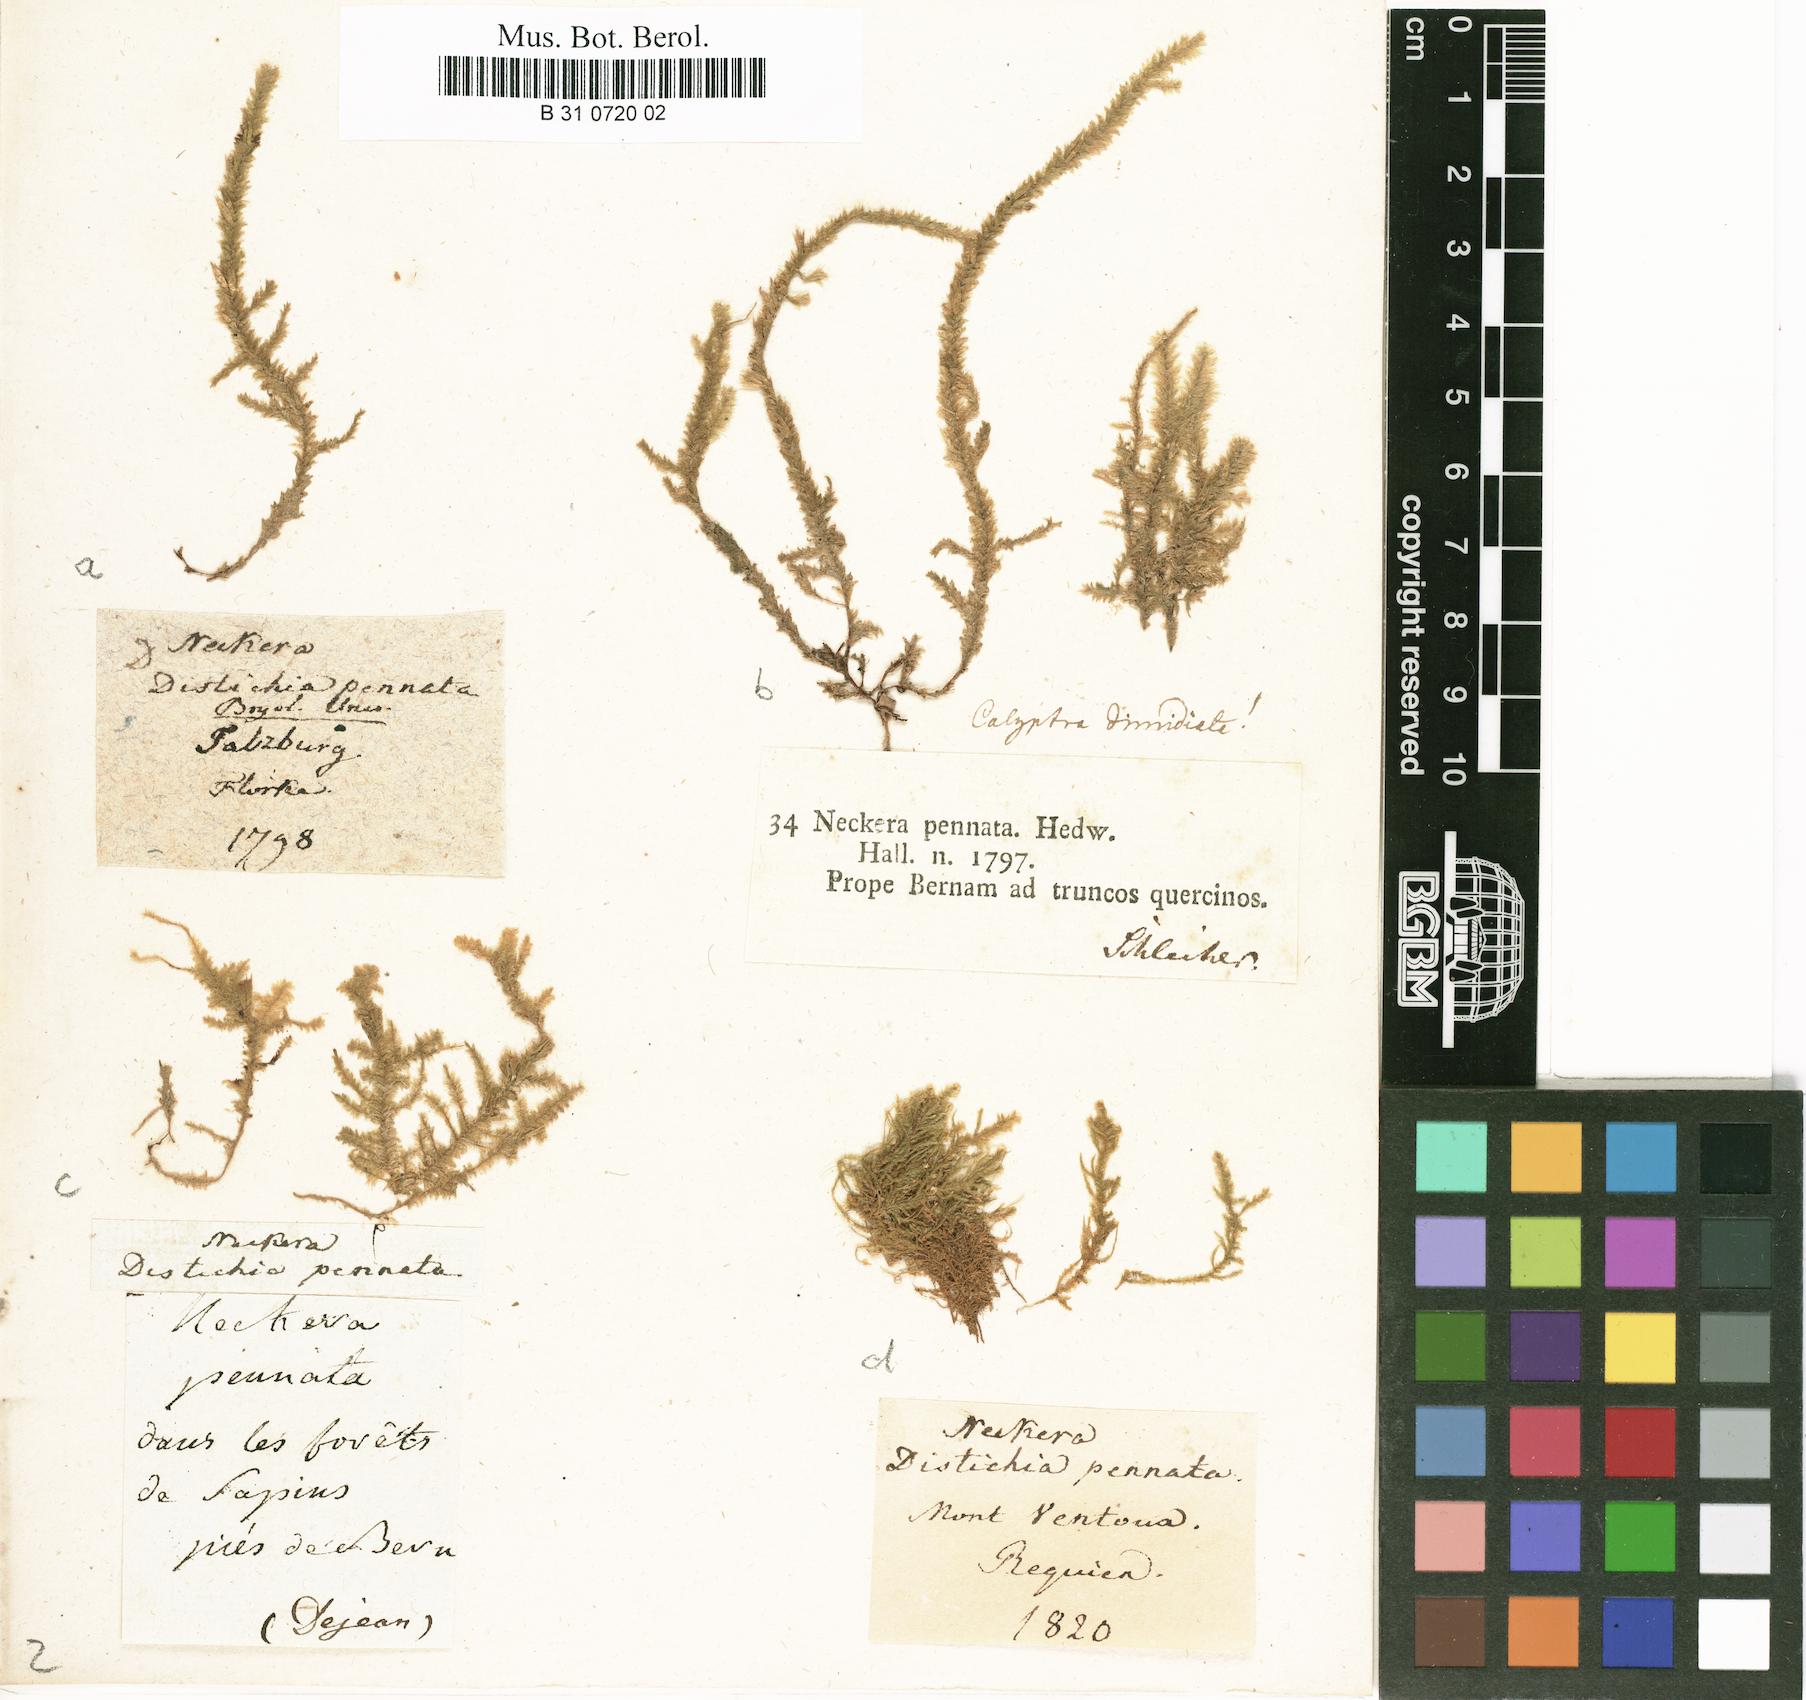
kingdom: Plantae
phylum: Bryophyta
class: Bryopsida
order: Hypnales
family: Neckeraceae
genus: Neckera
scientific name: Neckera pennata
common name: Feathery neckera
